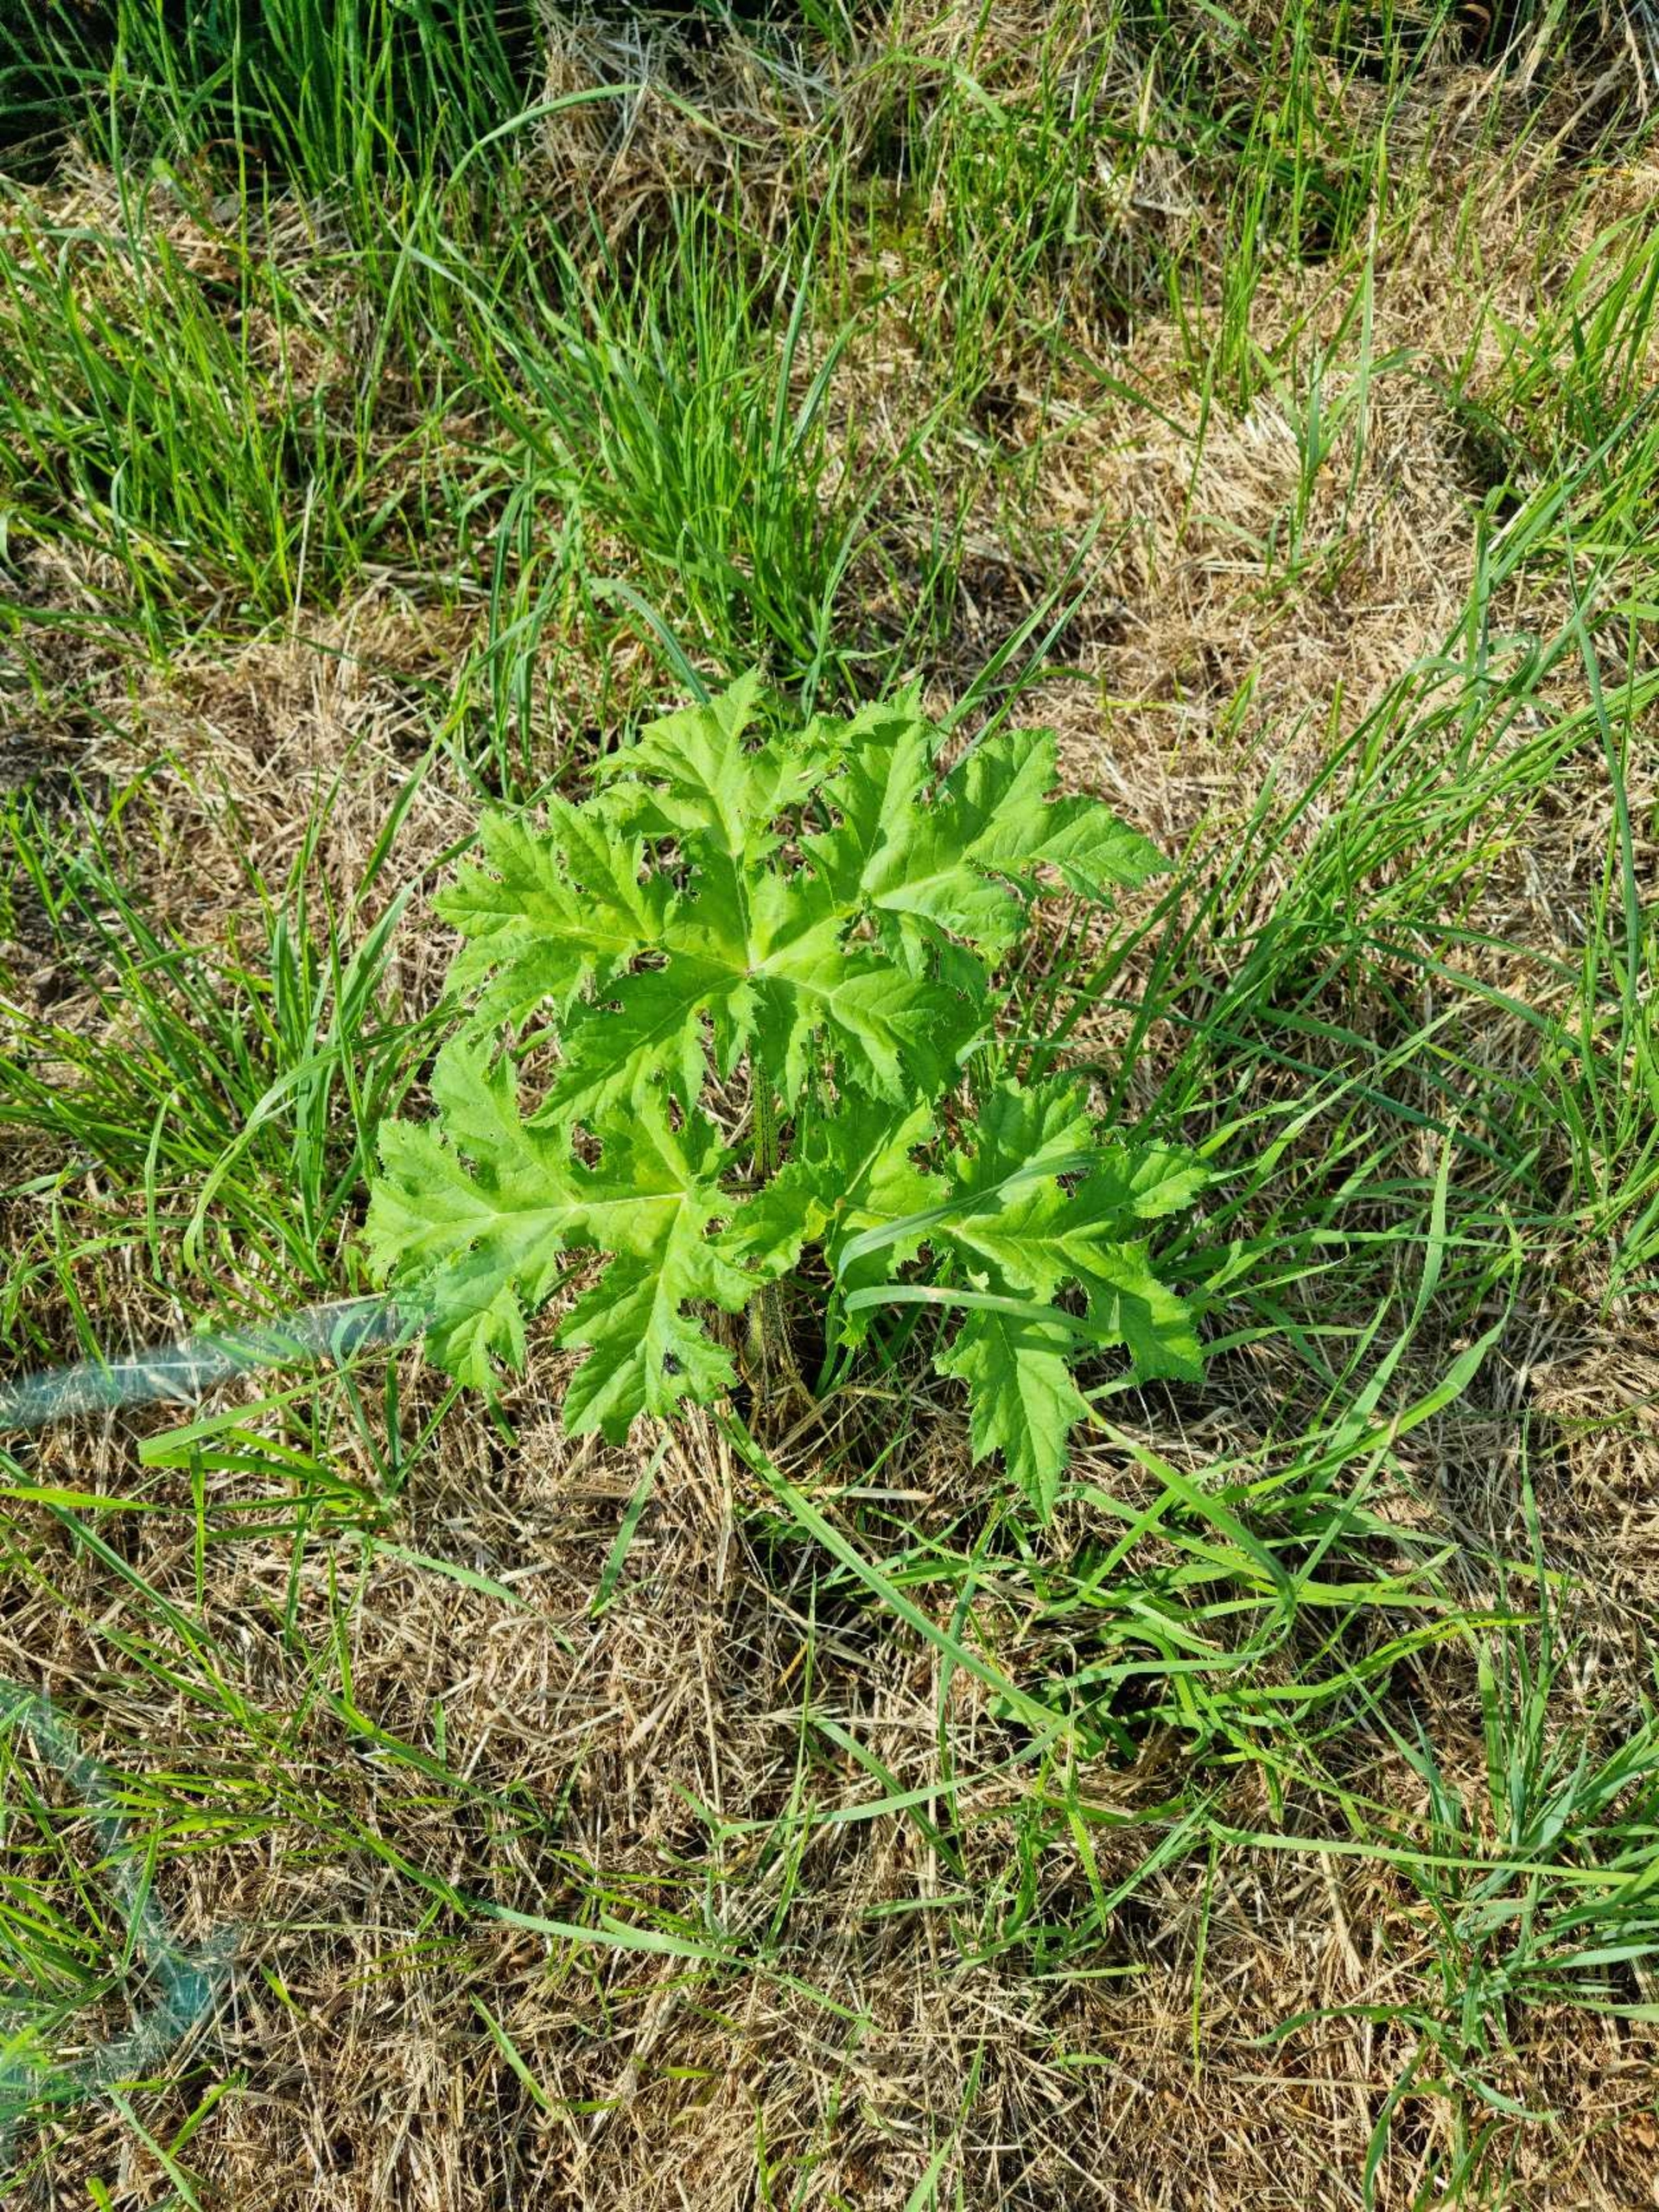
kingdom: Plantae
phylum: Tracheophyta
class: Magnoliopsida
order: Apiales
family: Apiaceae
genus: Heracleum
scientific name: Heracleum mantegazzianum
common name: Kæmpe-bjørneklo
